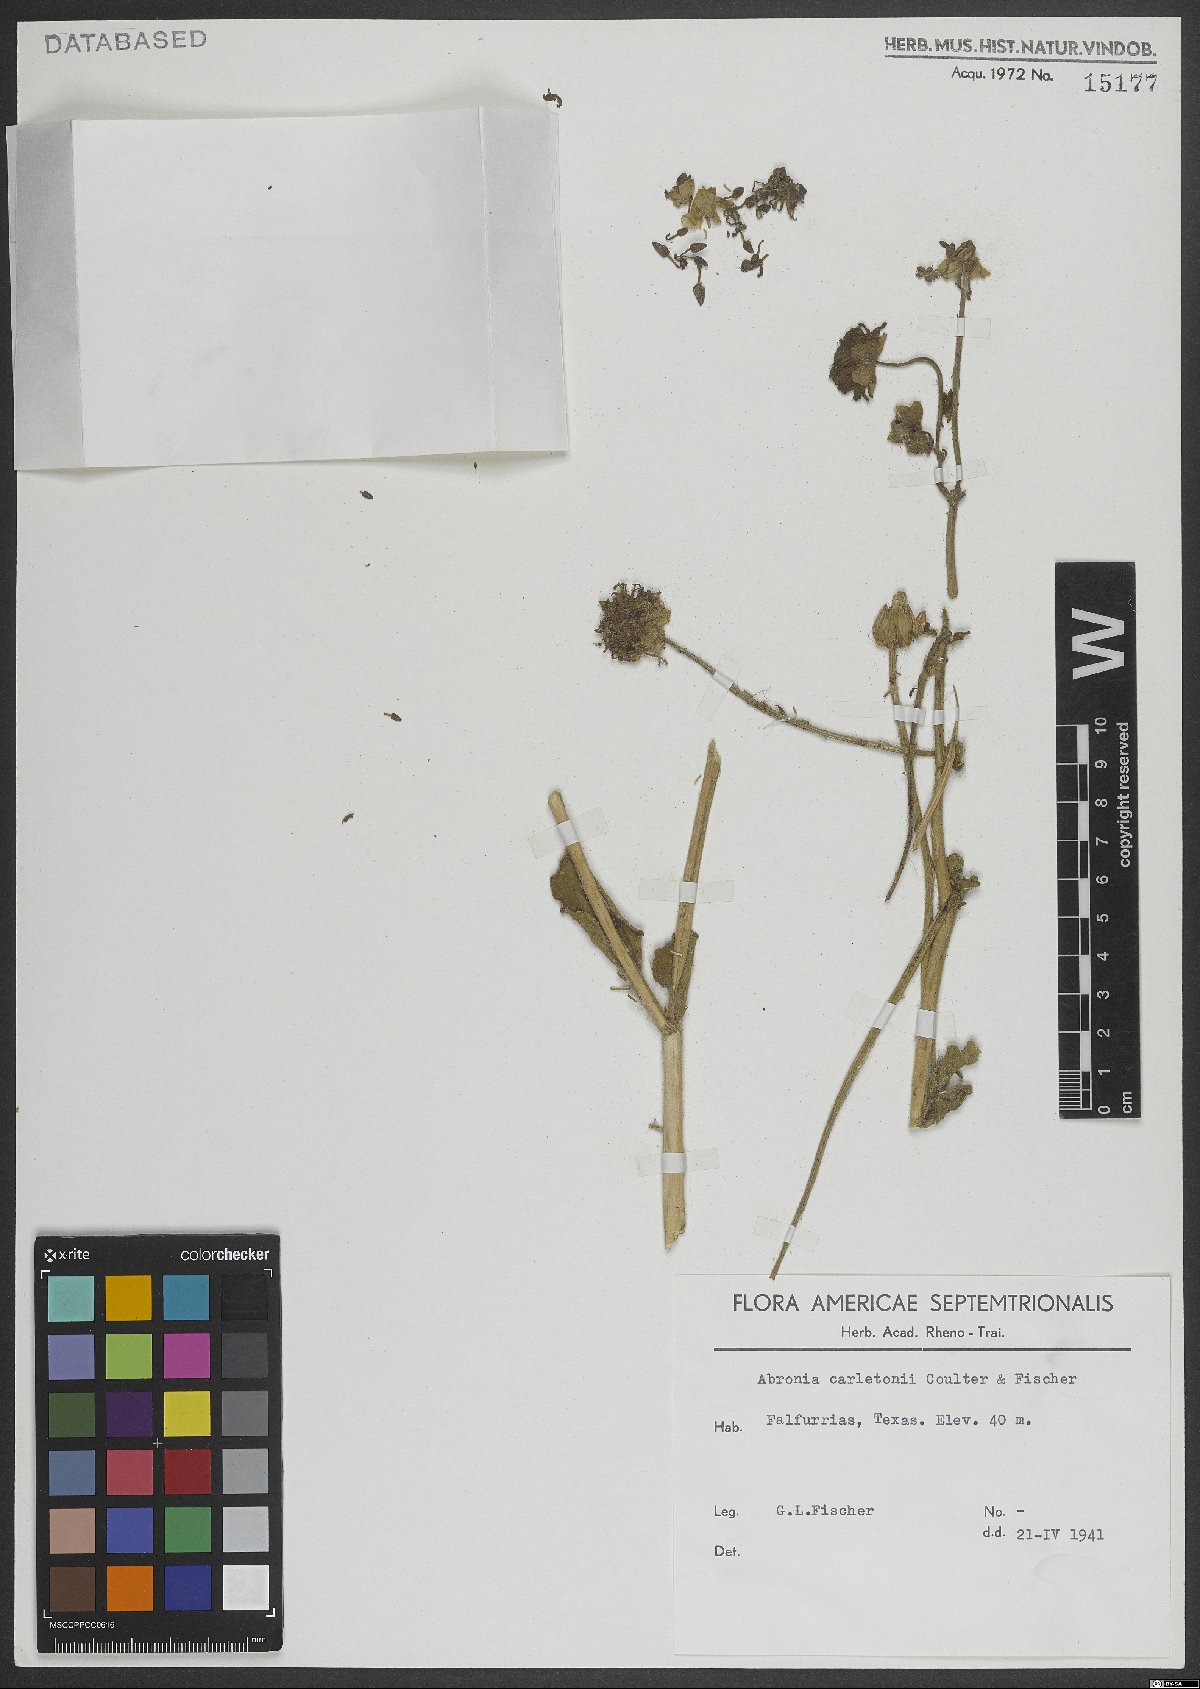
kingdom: Plantae
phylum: Tracheophyta
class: Magnoliopsida
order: Caryophyllales
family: Nyctaginaceae
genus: Abronia
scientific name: Abronia carletonii
